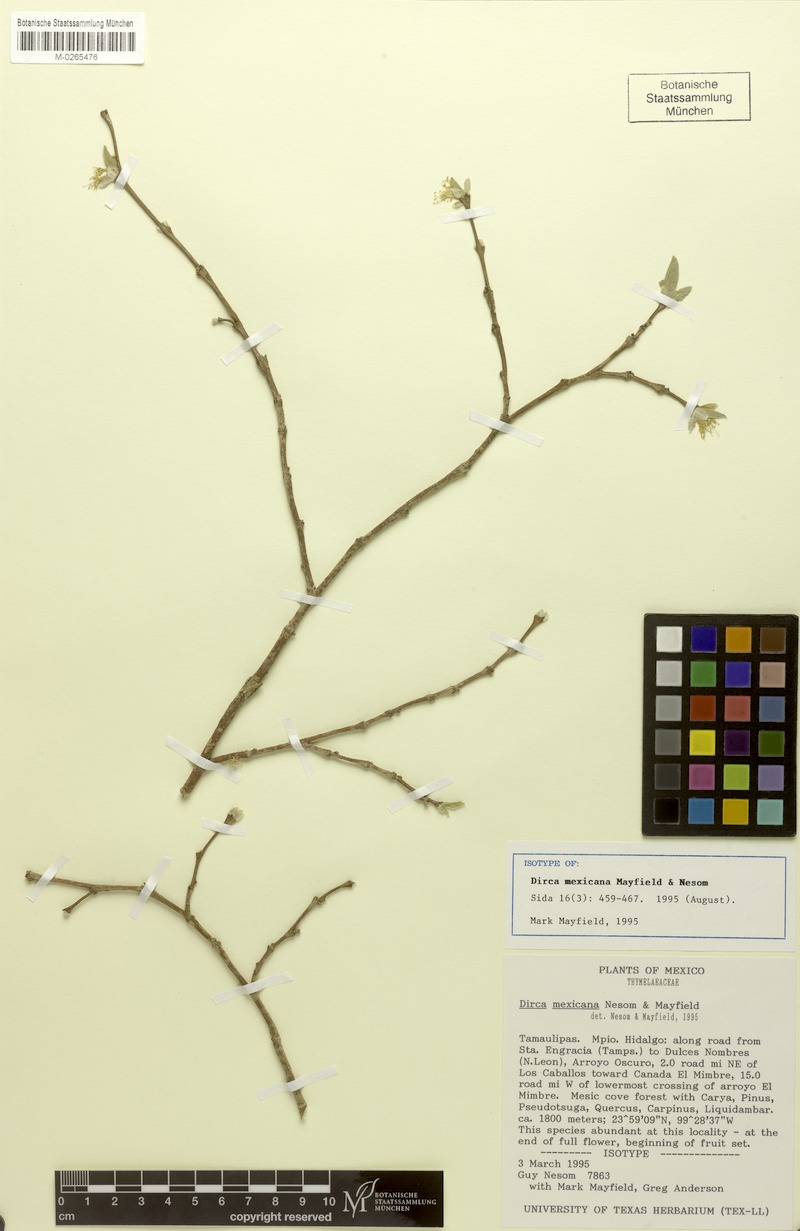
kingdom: Plantae
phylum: Tracheophyta
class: Magnoliopsida
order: Malvales
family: Thymelaeaceae
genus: Dirca
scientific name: Dirca mexicana
